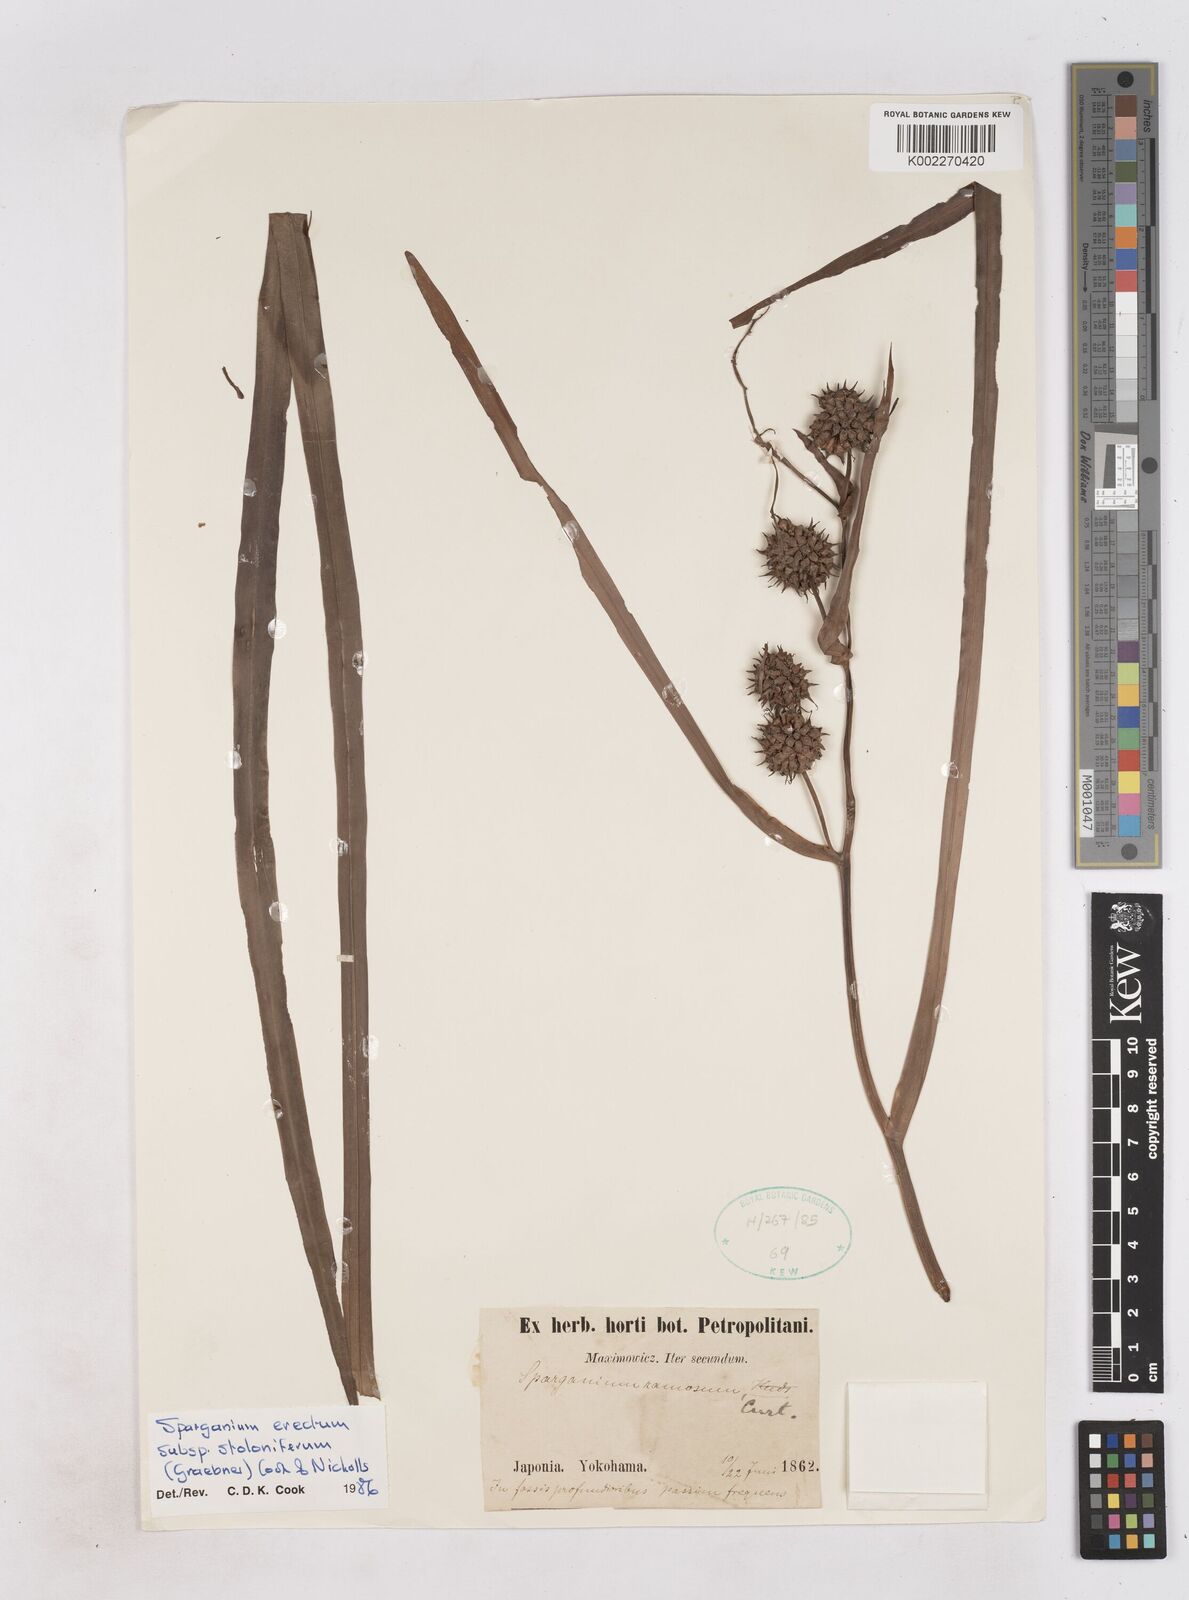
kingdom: Plantae
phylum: Tracheophyta
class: Liliopsida
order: Poales
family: Typhaceae
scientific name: Typhaceae
